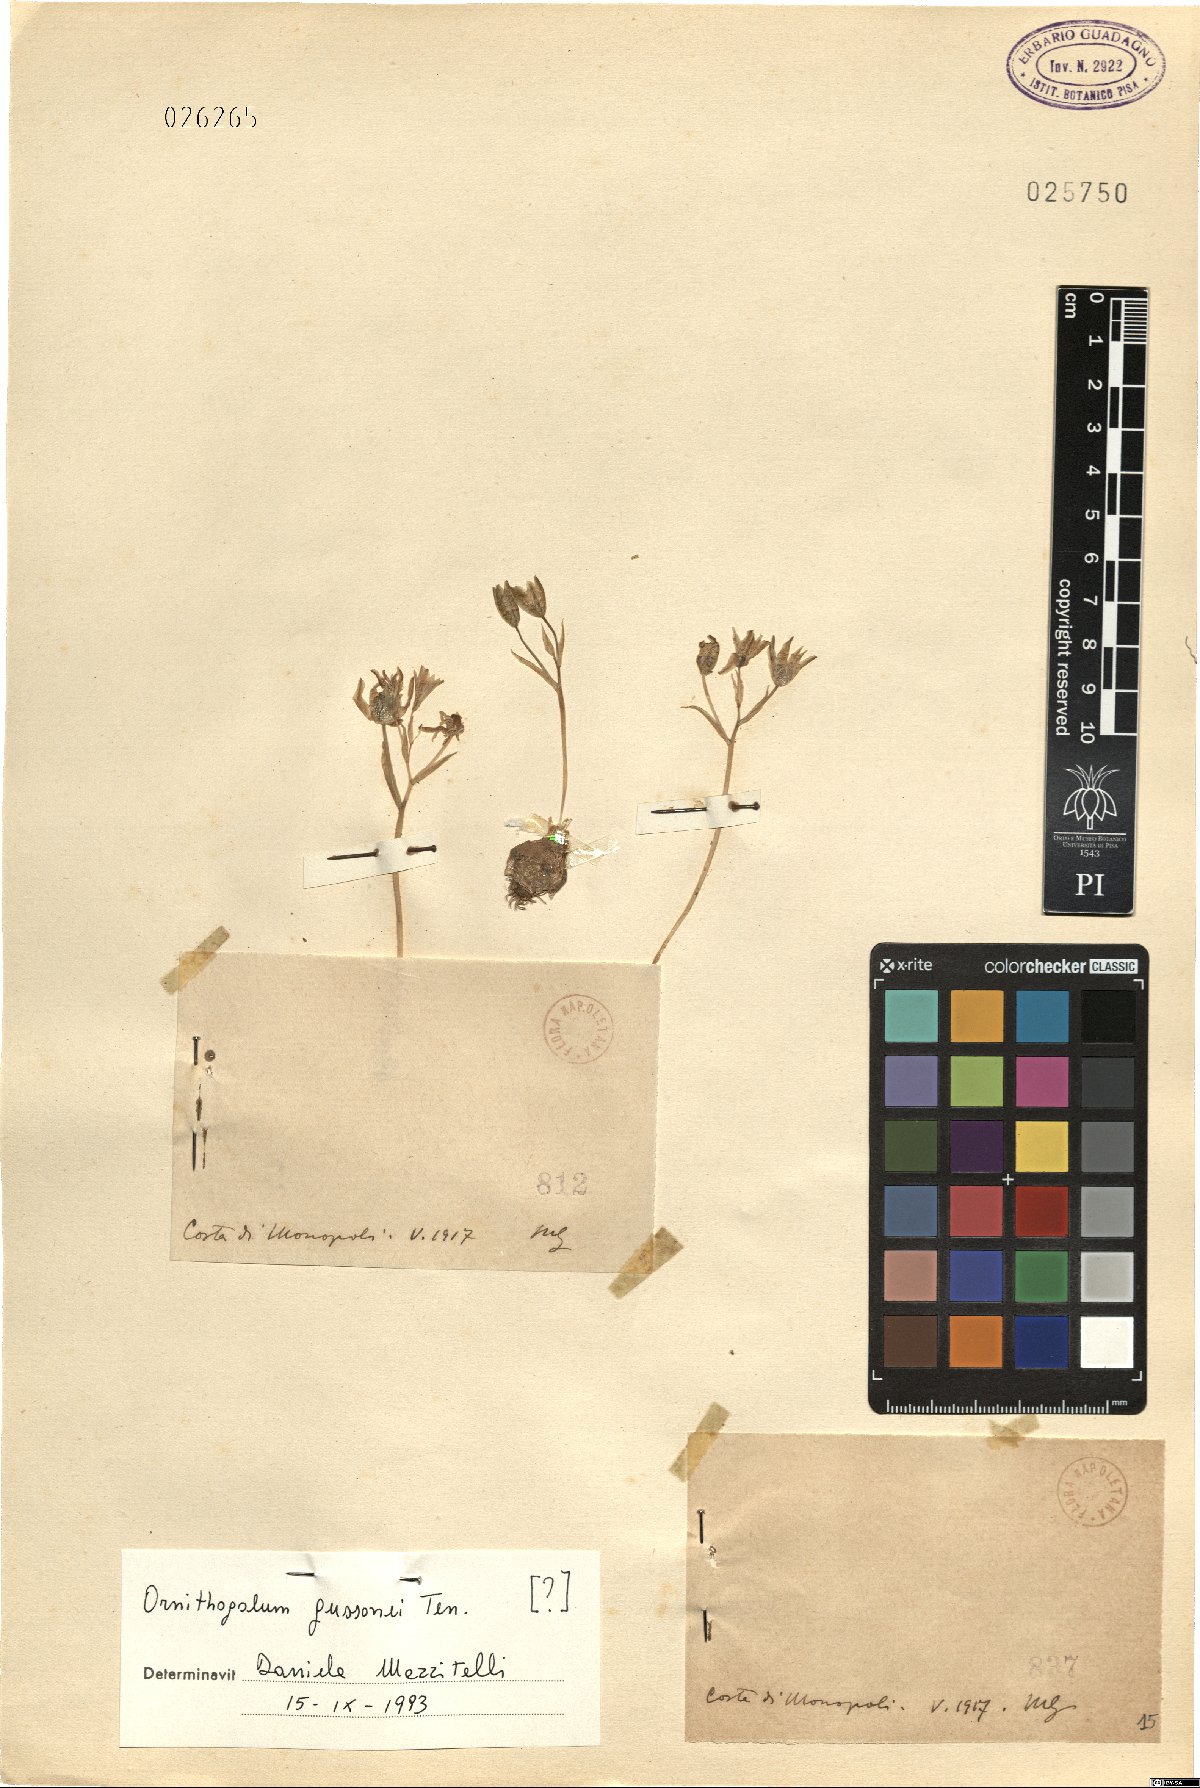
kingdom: Plantae
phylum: Tracheophyta
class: Liliopsida
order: Asparagales
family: Asparagaceae
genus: Ornithogalum
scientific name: Ornithogalum gussonei
